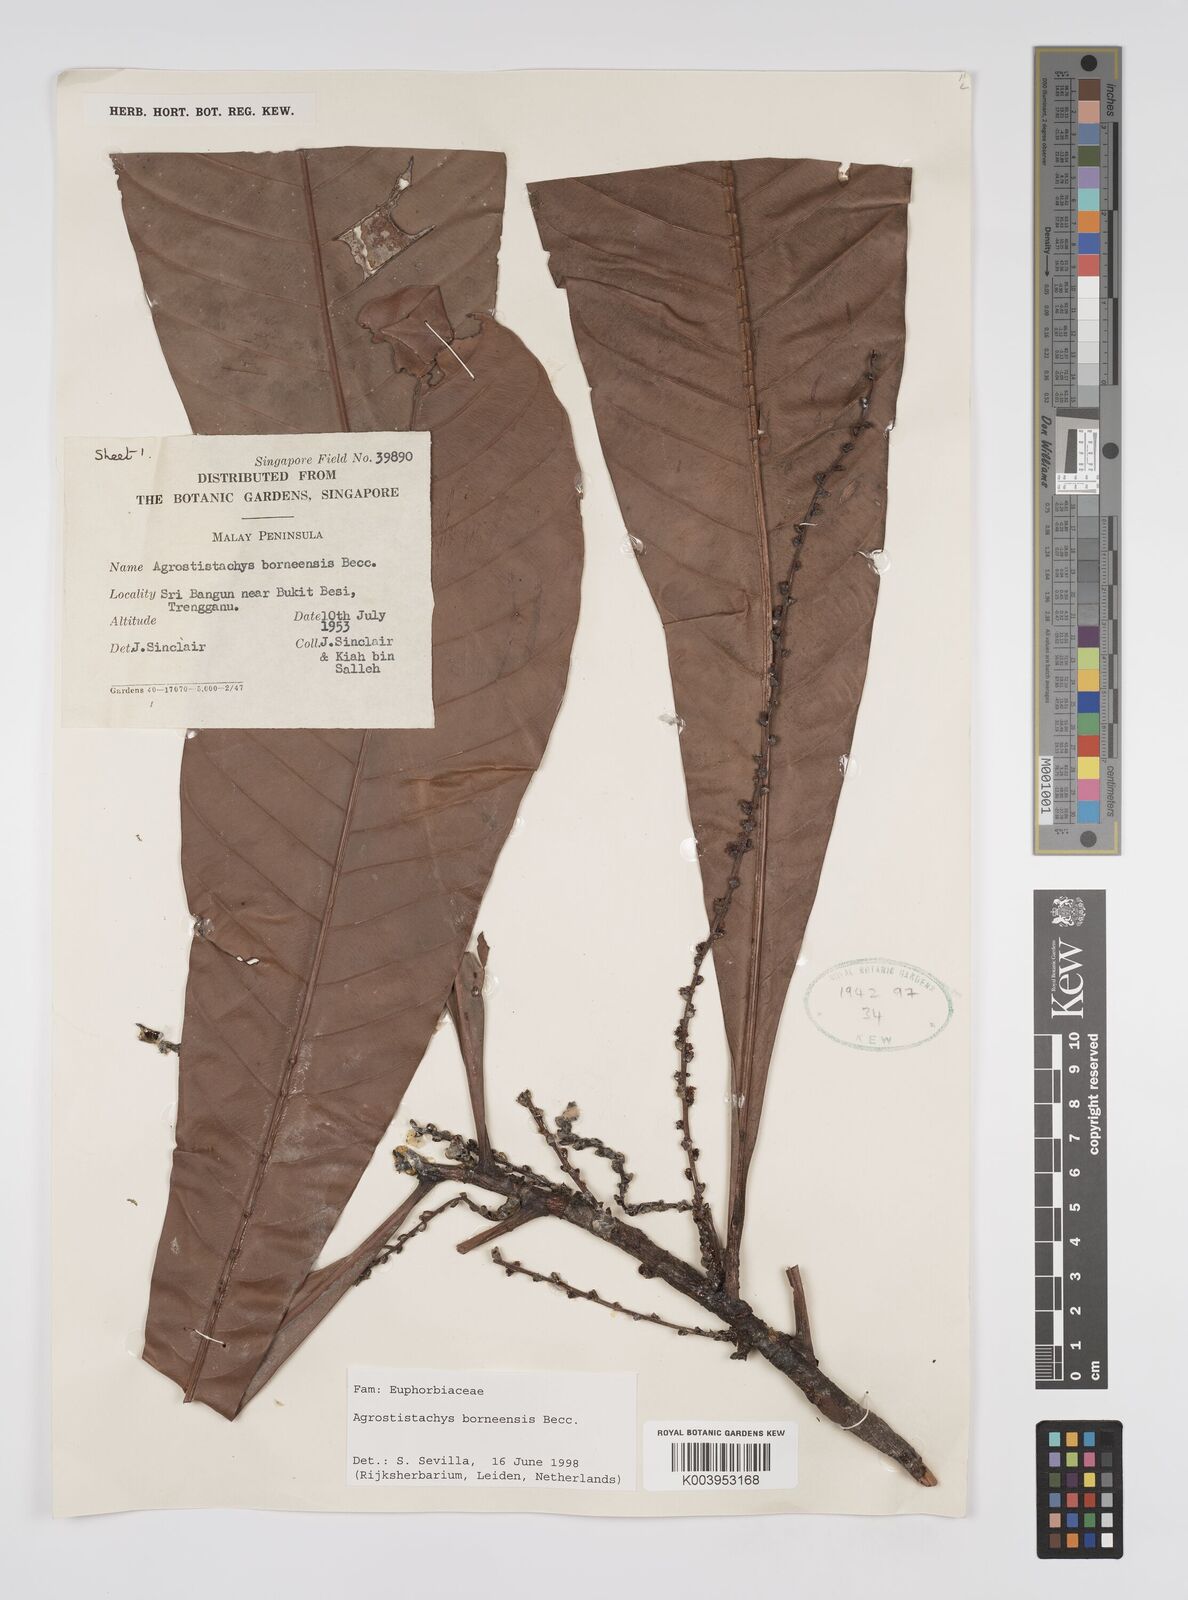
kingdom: Plantae
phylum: Tracheophyta
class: Magnoliopsida
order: Malpighiales
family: Euphorbiaceae
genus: Agrostistachys
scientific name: Agrostistachys borneensis
